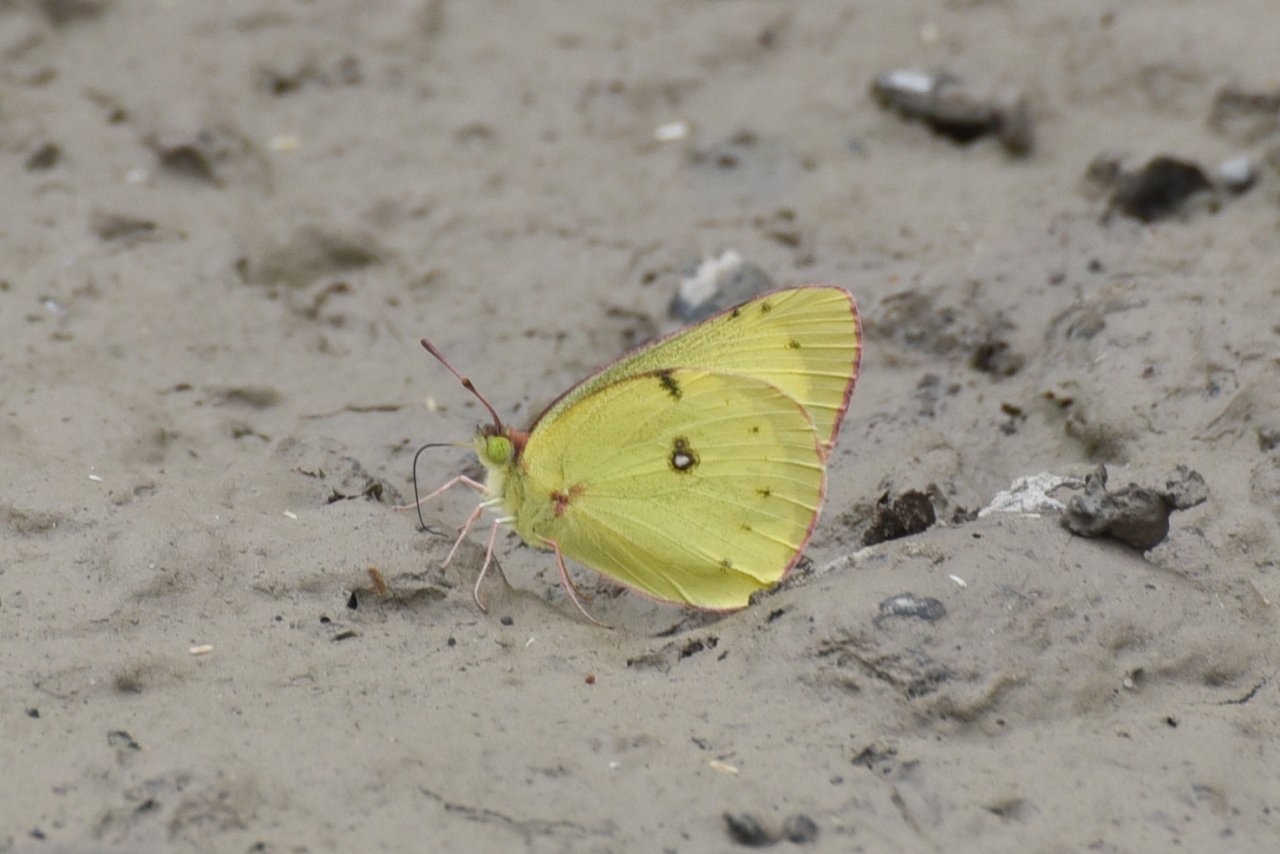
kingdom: Animalia
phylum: Arthropoda
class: Insecta
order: Lepidoptera
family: Pieridae
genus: Colias
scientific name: Colias philodice
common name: Clouded Sulphur
